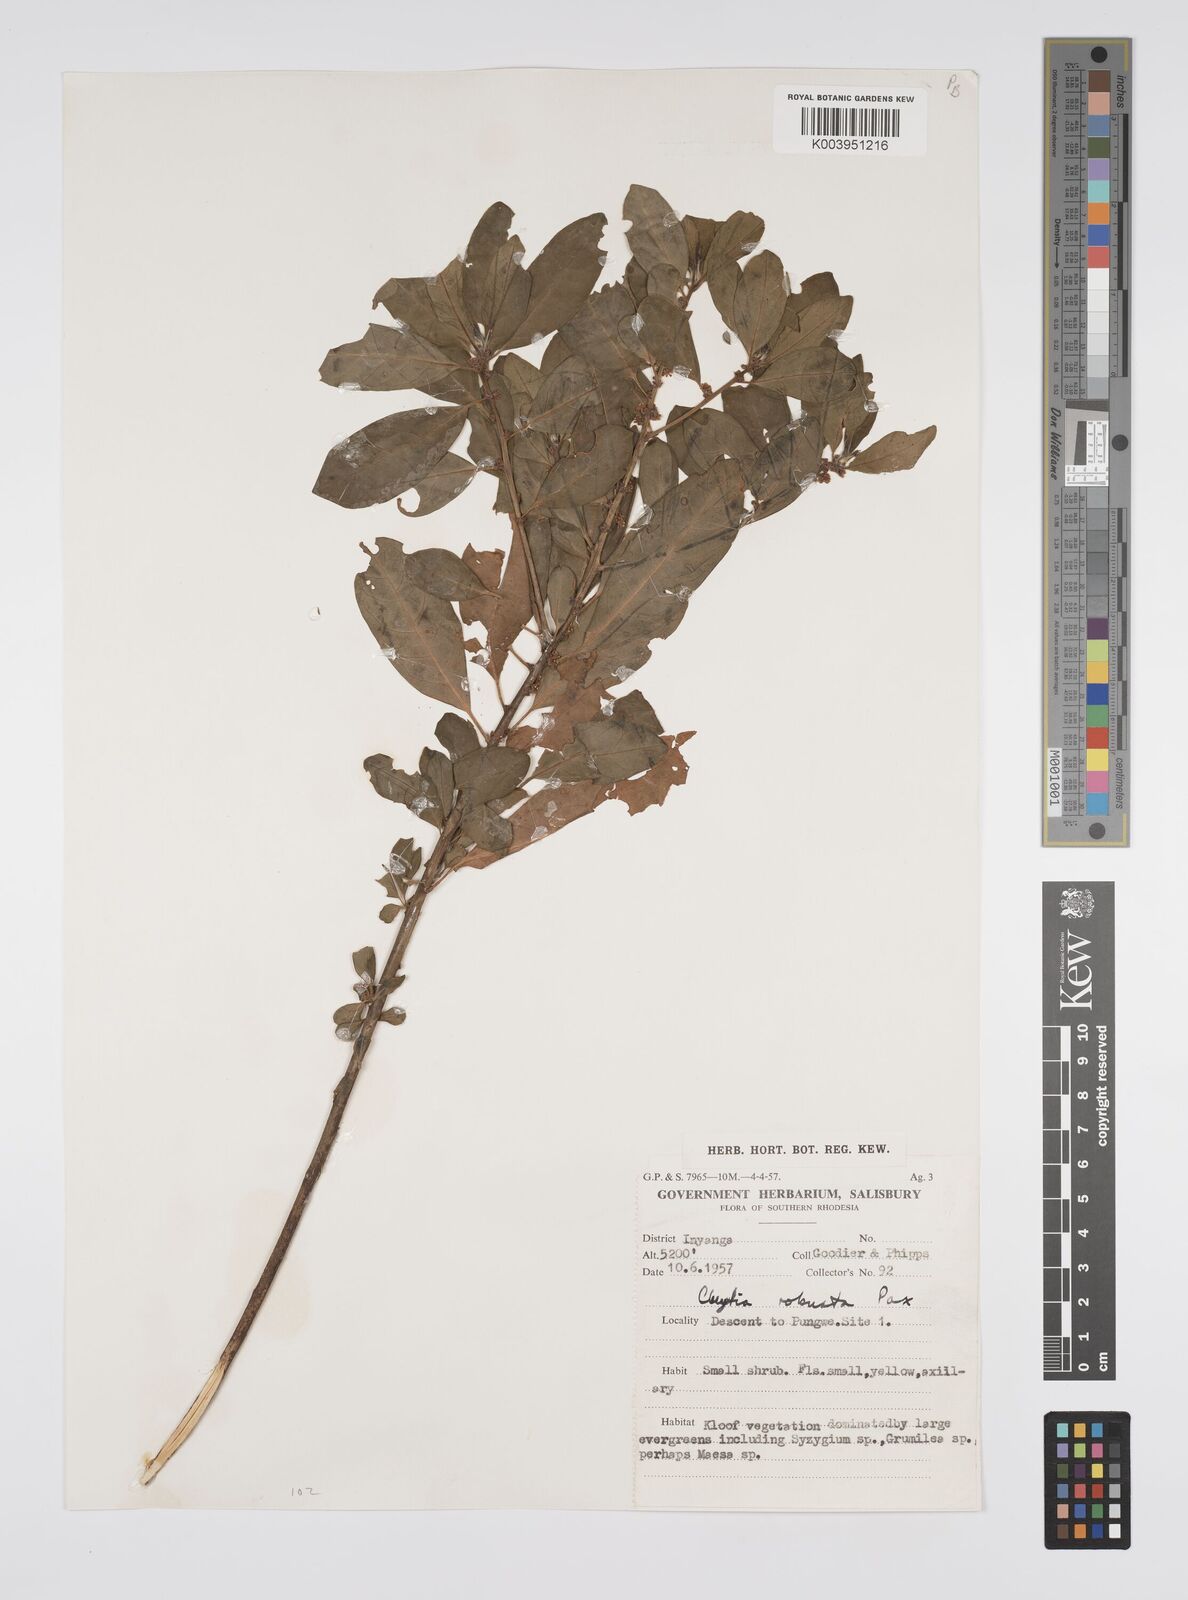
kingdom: Plantae
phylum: Tracheophyta
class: Magnoliopsida
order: Malpighiales
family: Peraceae
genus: Clutia
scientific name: Clutia kilimandscharica
